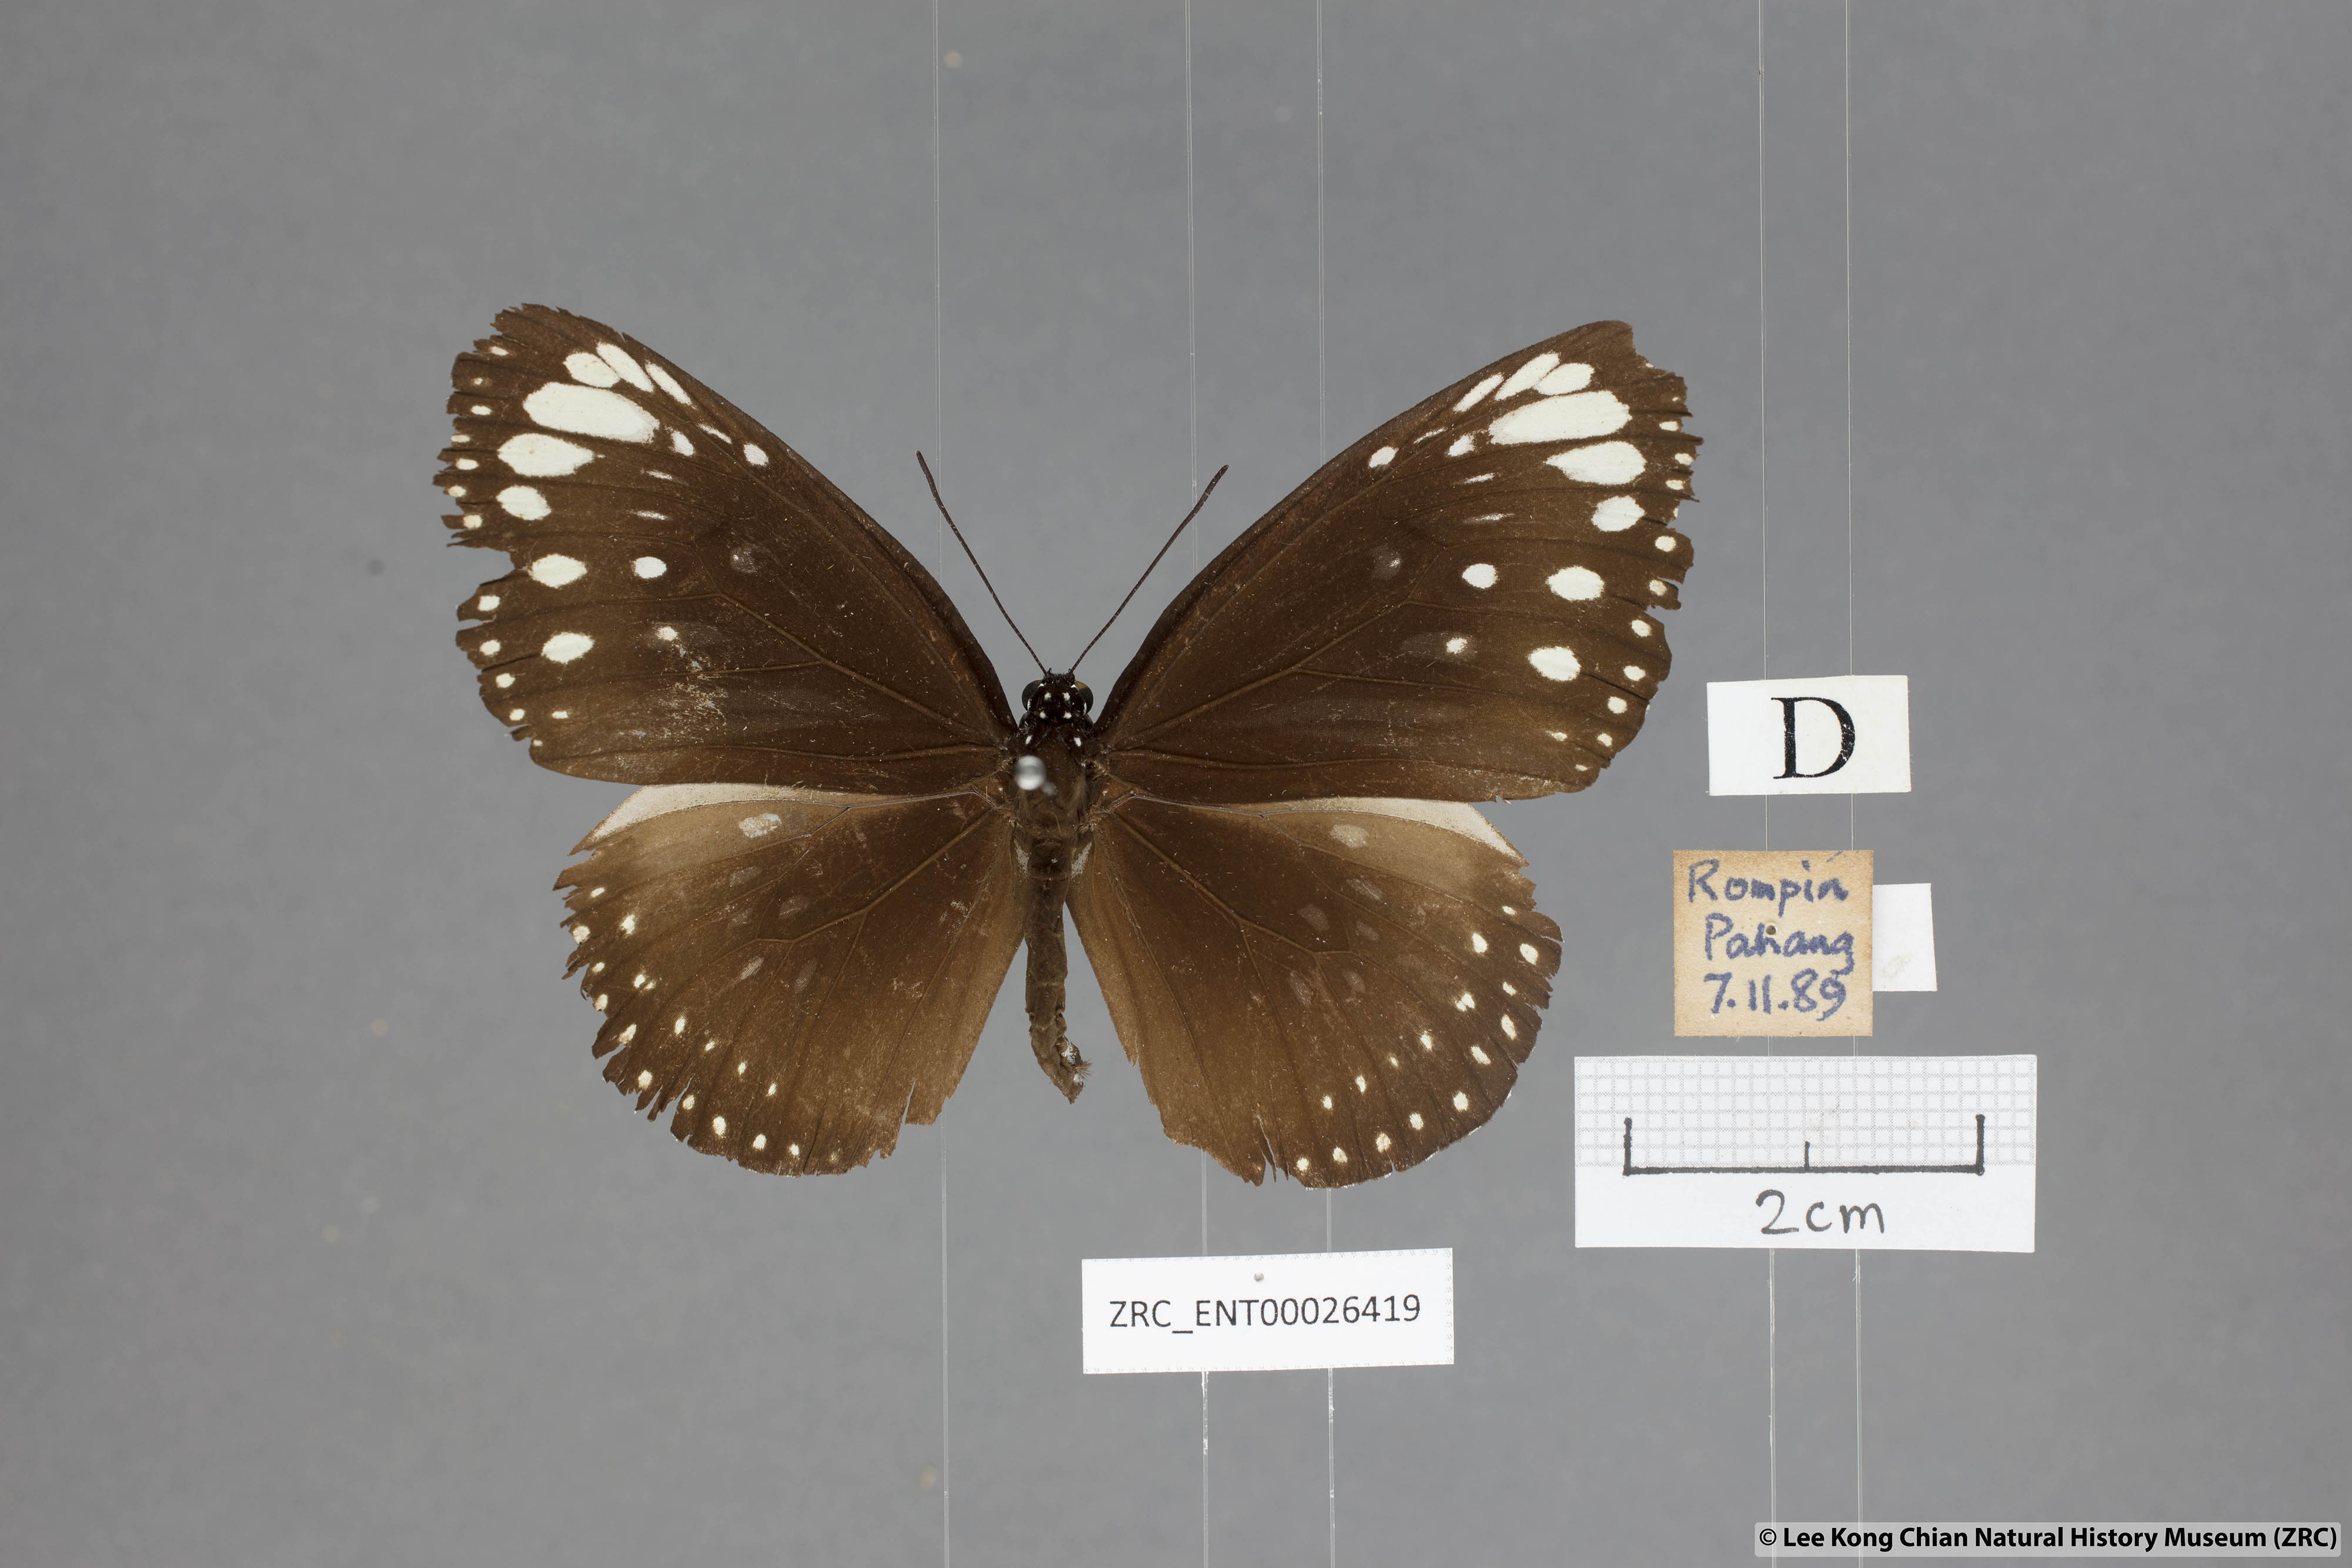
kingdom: Animalia
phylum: Arthropoda
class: Insecta
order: Lepidoptera
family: Nymphalidae
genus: Euploea
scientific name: Euploea core
